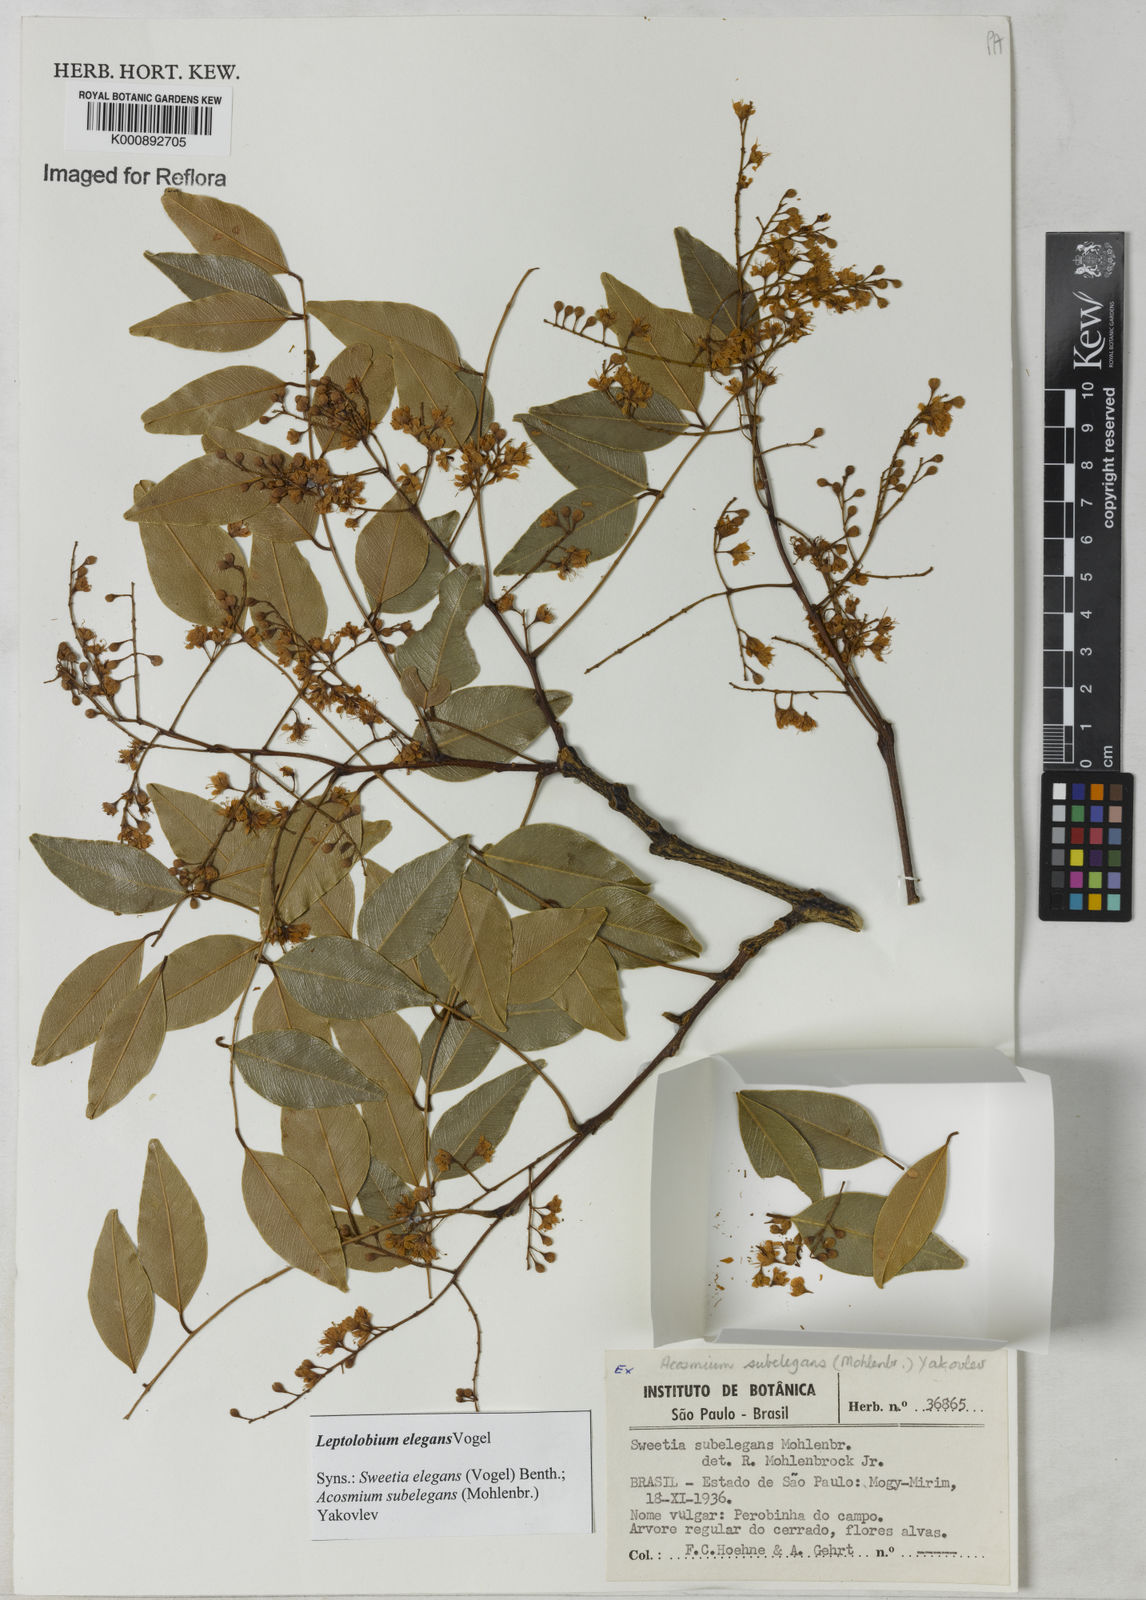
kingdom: Plantae
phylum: Tracheophyta
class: Magnoliopsida
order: Fabales
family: Fabaceae
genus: Leptolobium
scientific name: Leptolobium elegans
